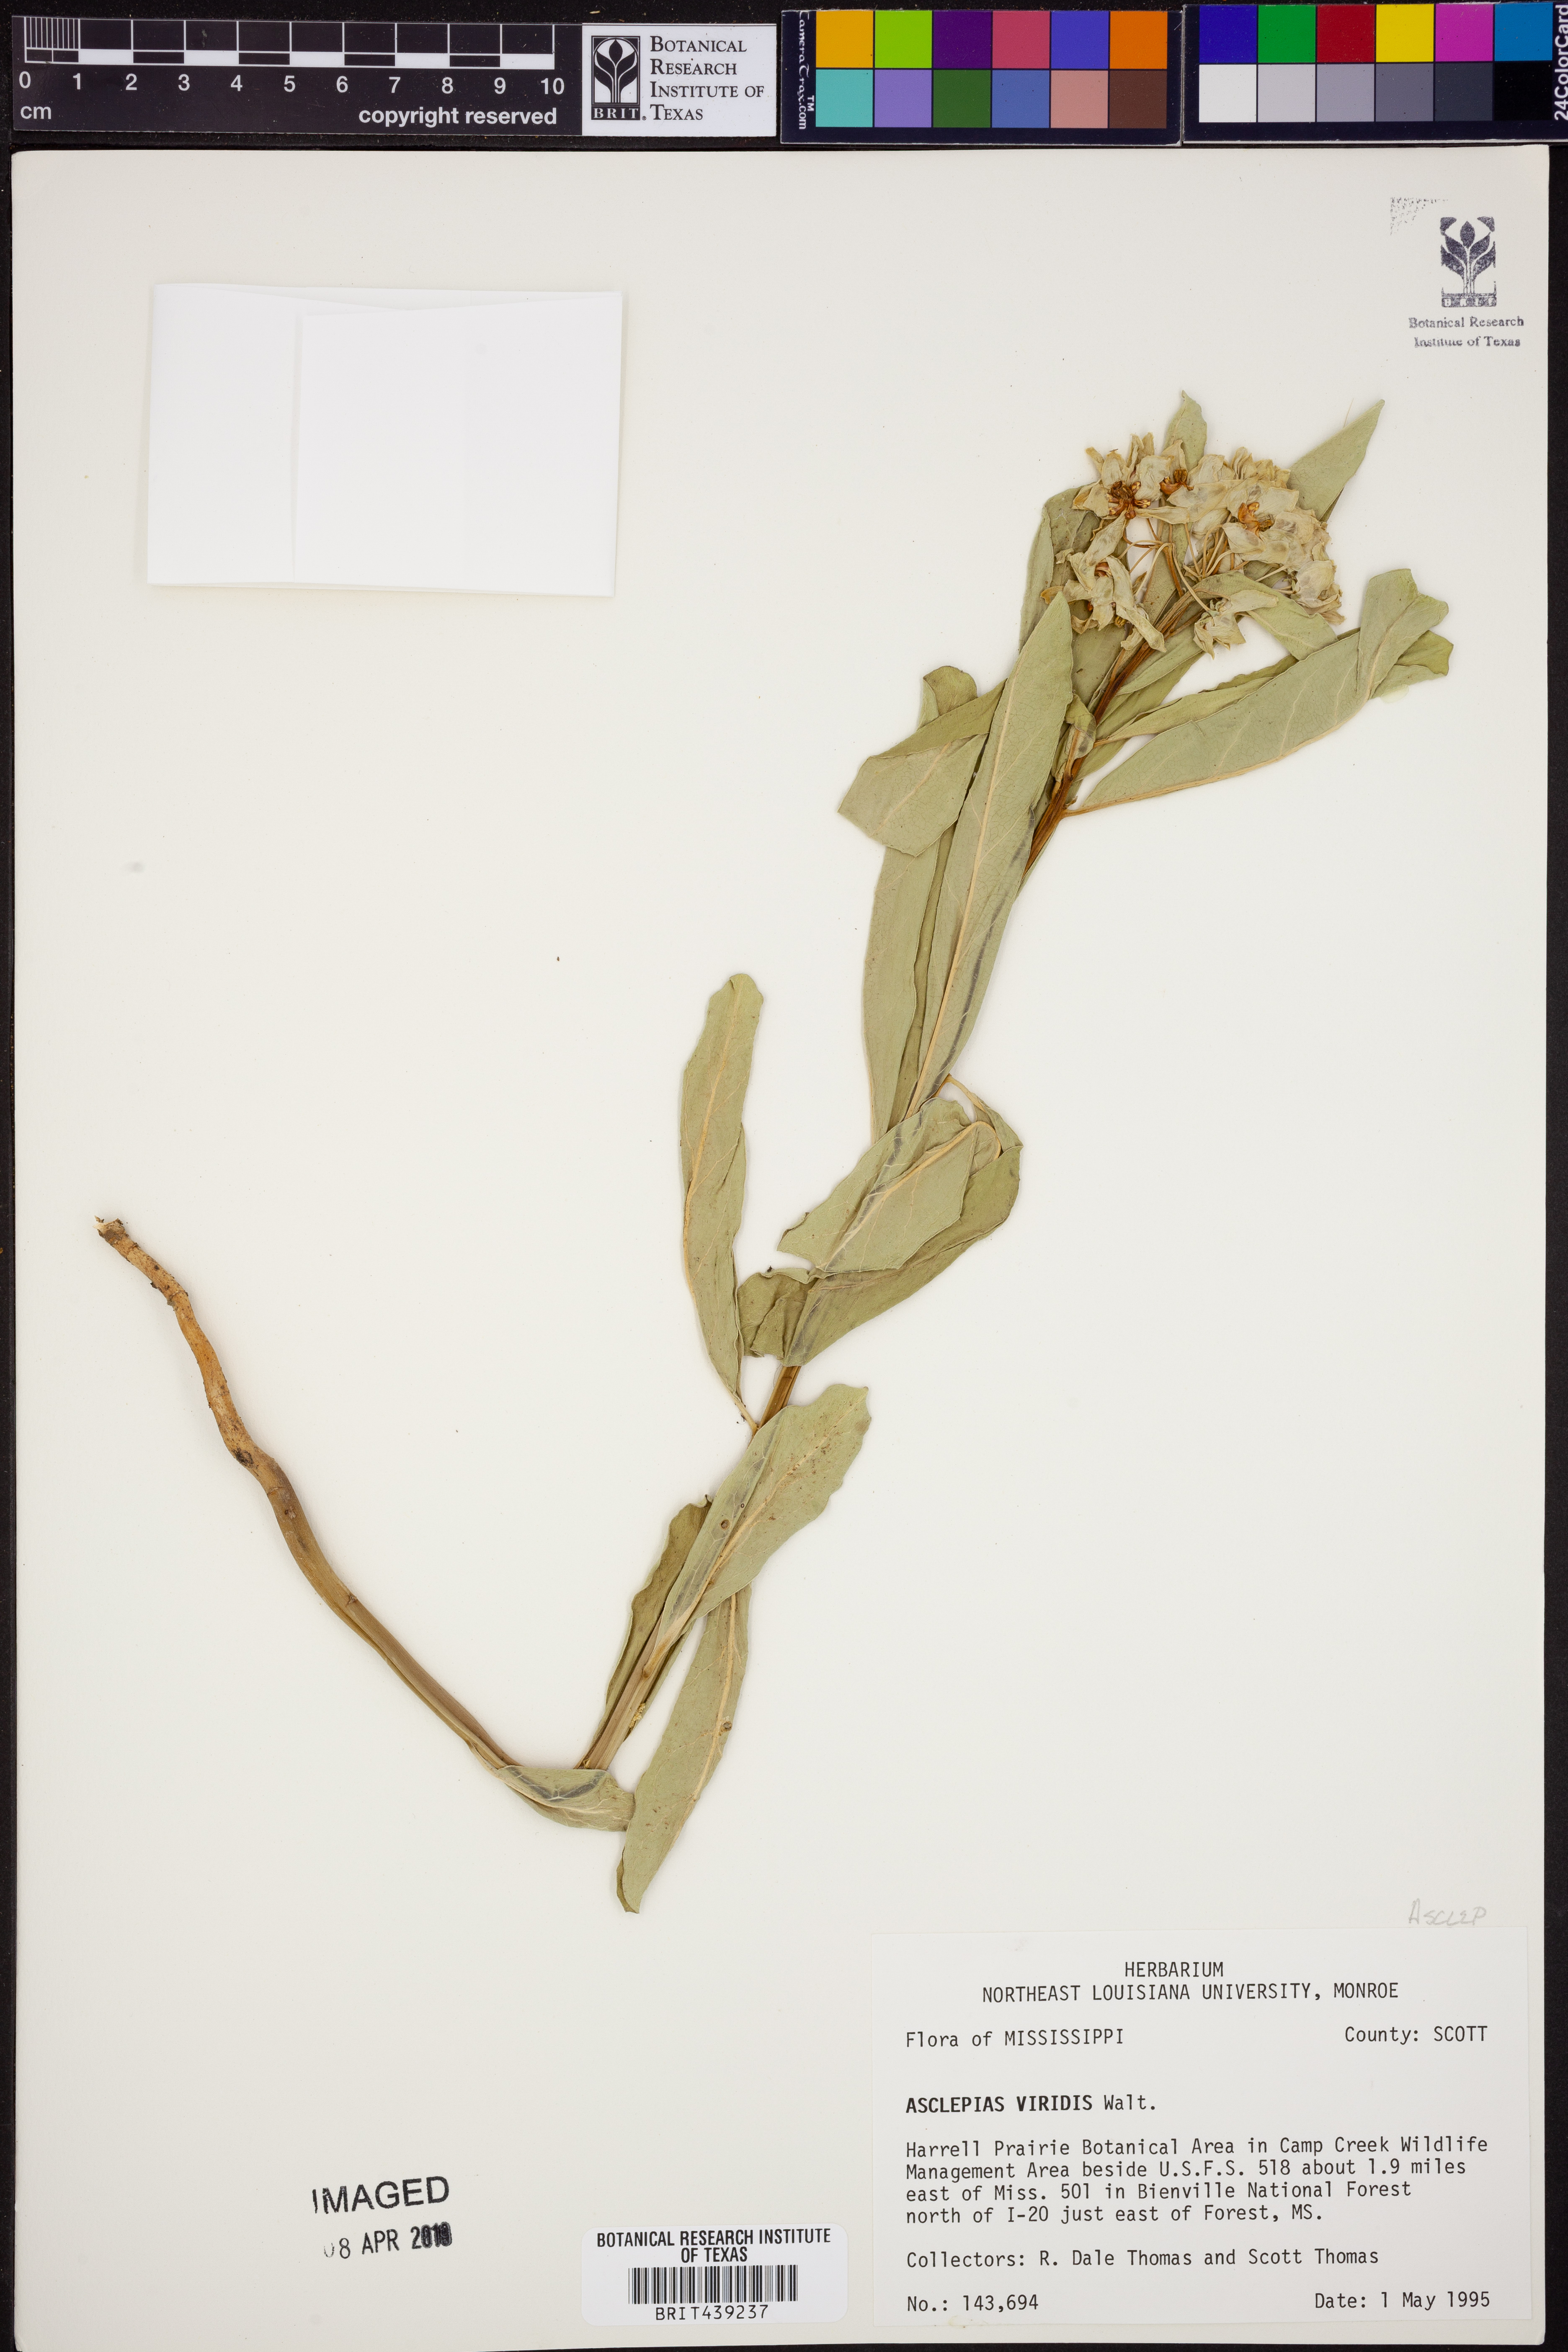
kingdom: Plantae
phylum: Tracheophyta
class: Magnoliopsida
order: Gentianales
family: Apocynaceae
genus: Asclepias
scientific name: Asclepias viridis
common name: Antelope-horns
